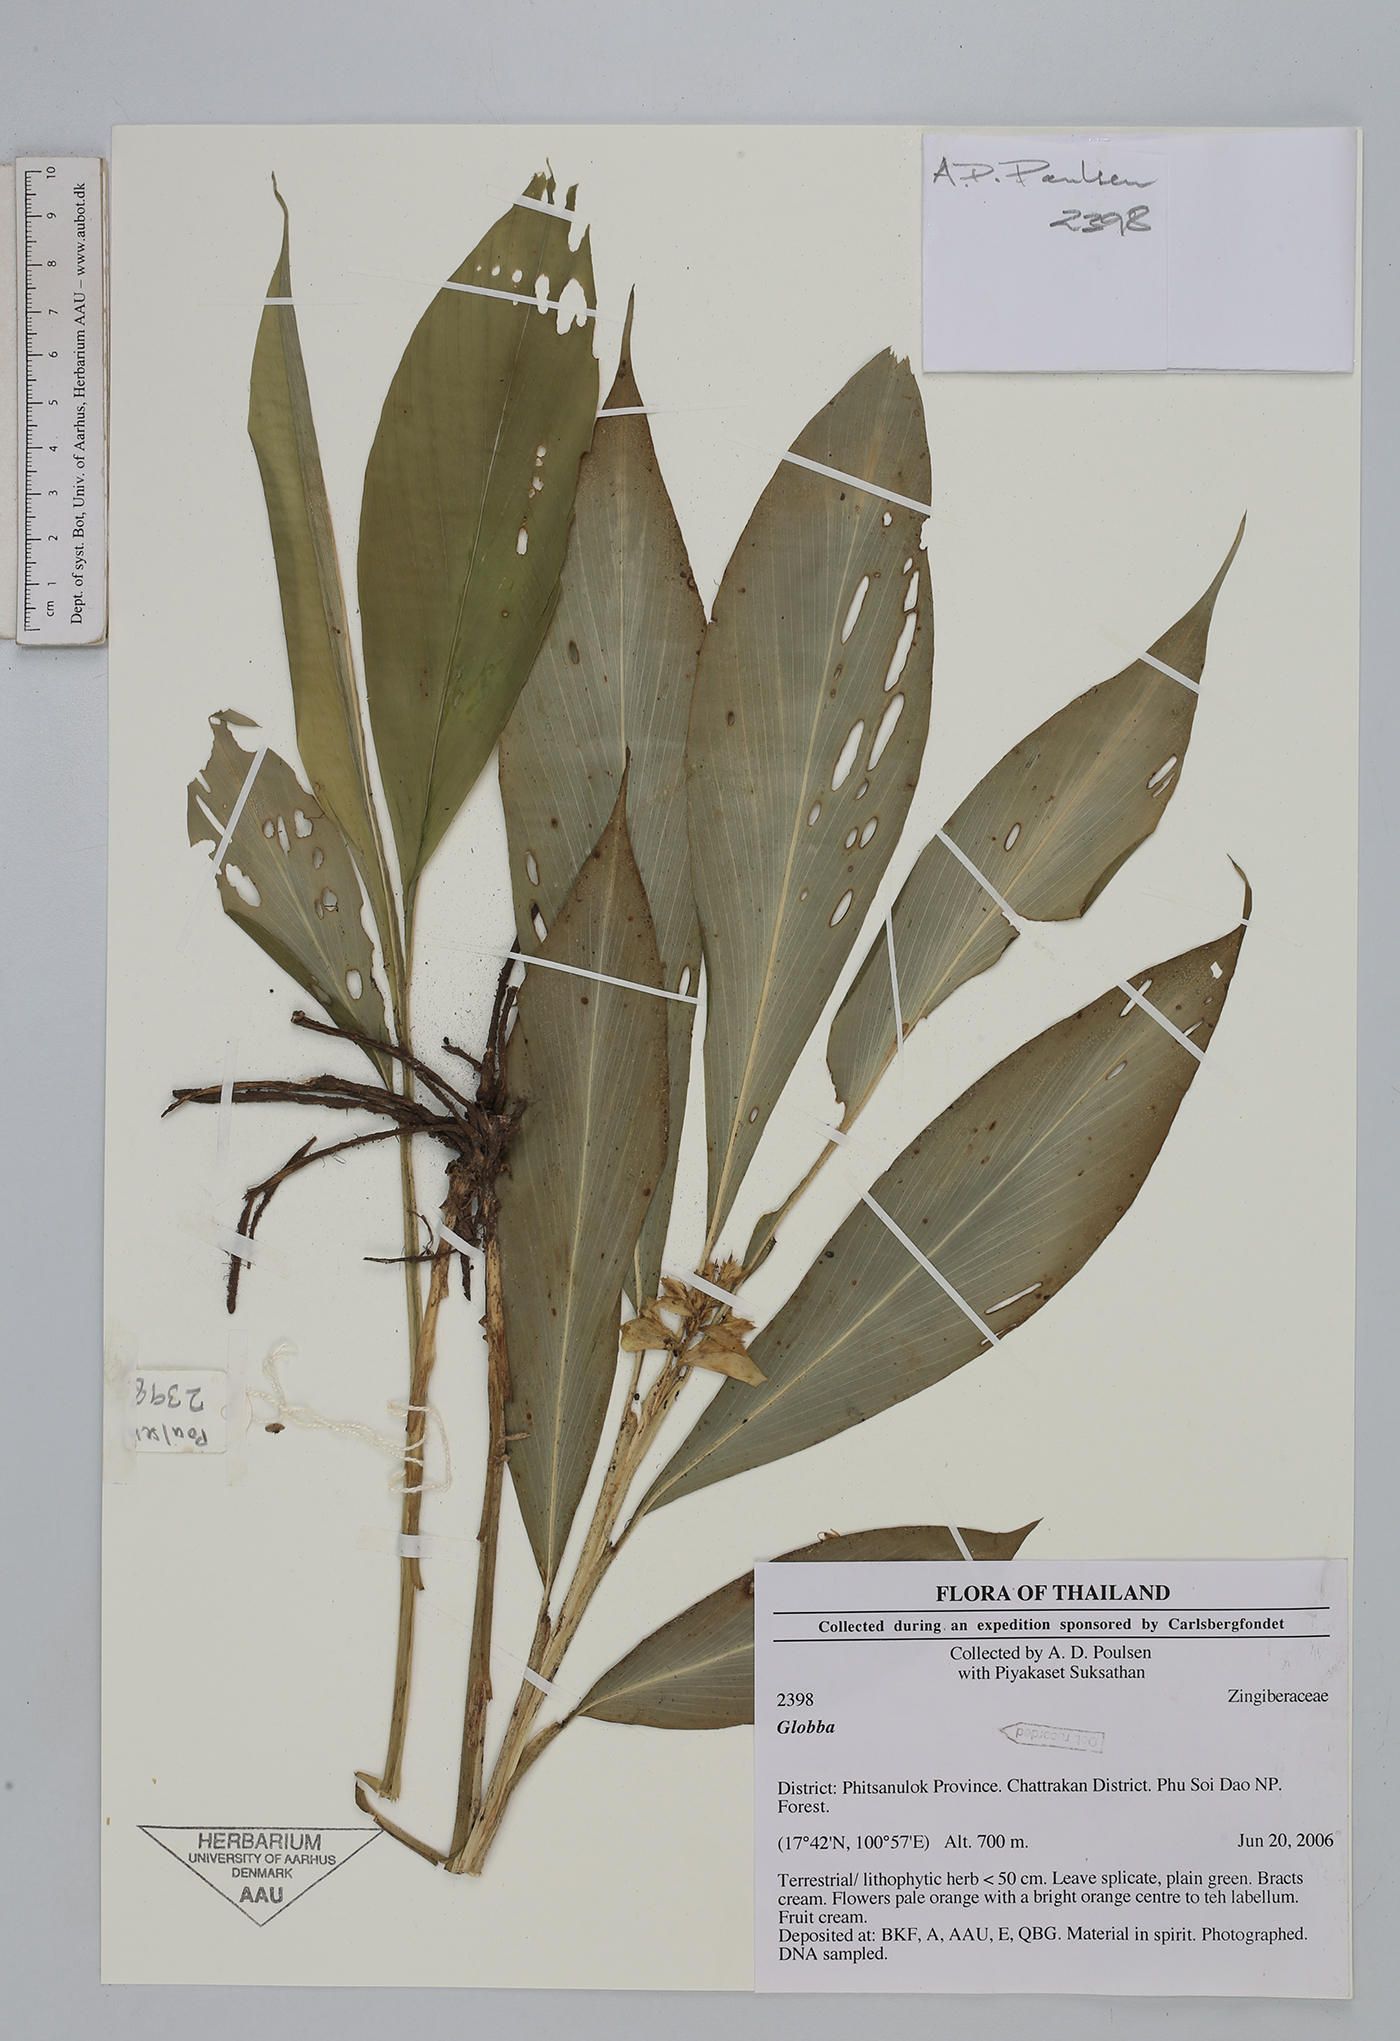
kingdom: Plantae
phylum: Tracheophyta
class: Liliopsida
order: Zingiberales
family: Zingiberaceae
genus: Globba
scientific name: Globba
